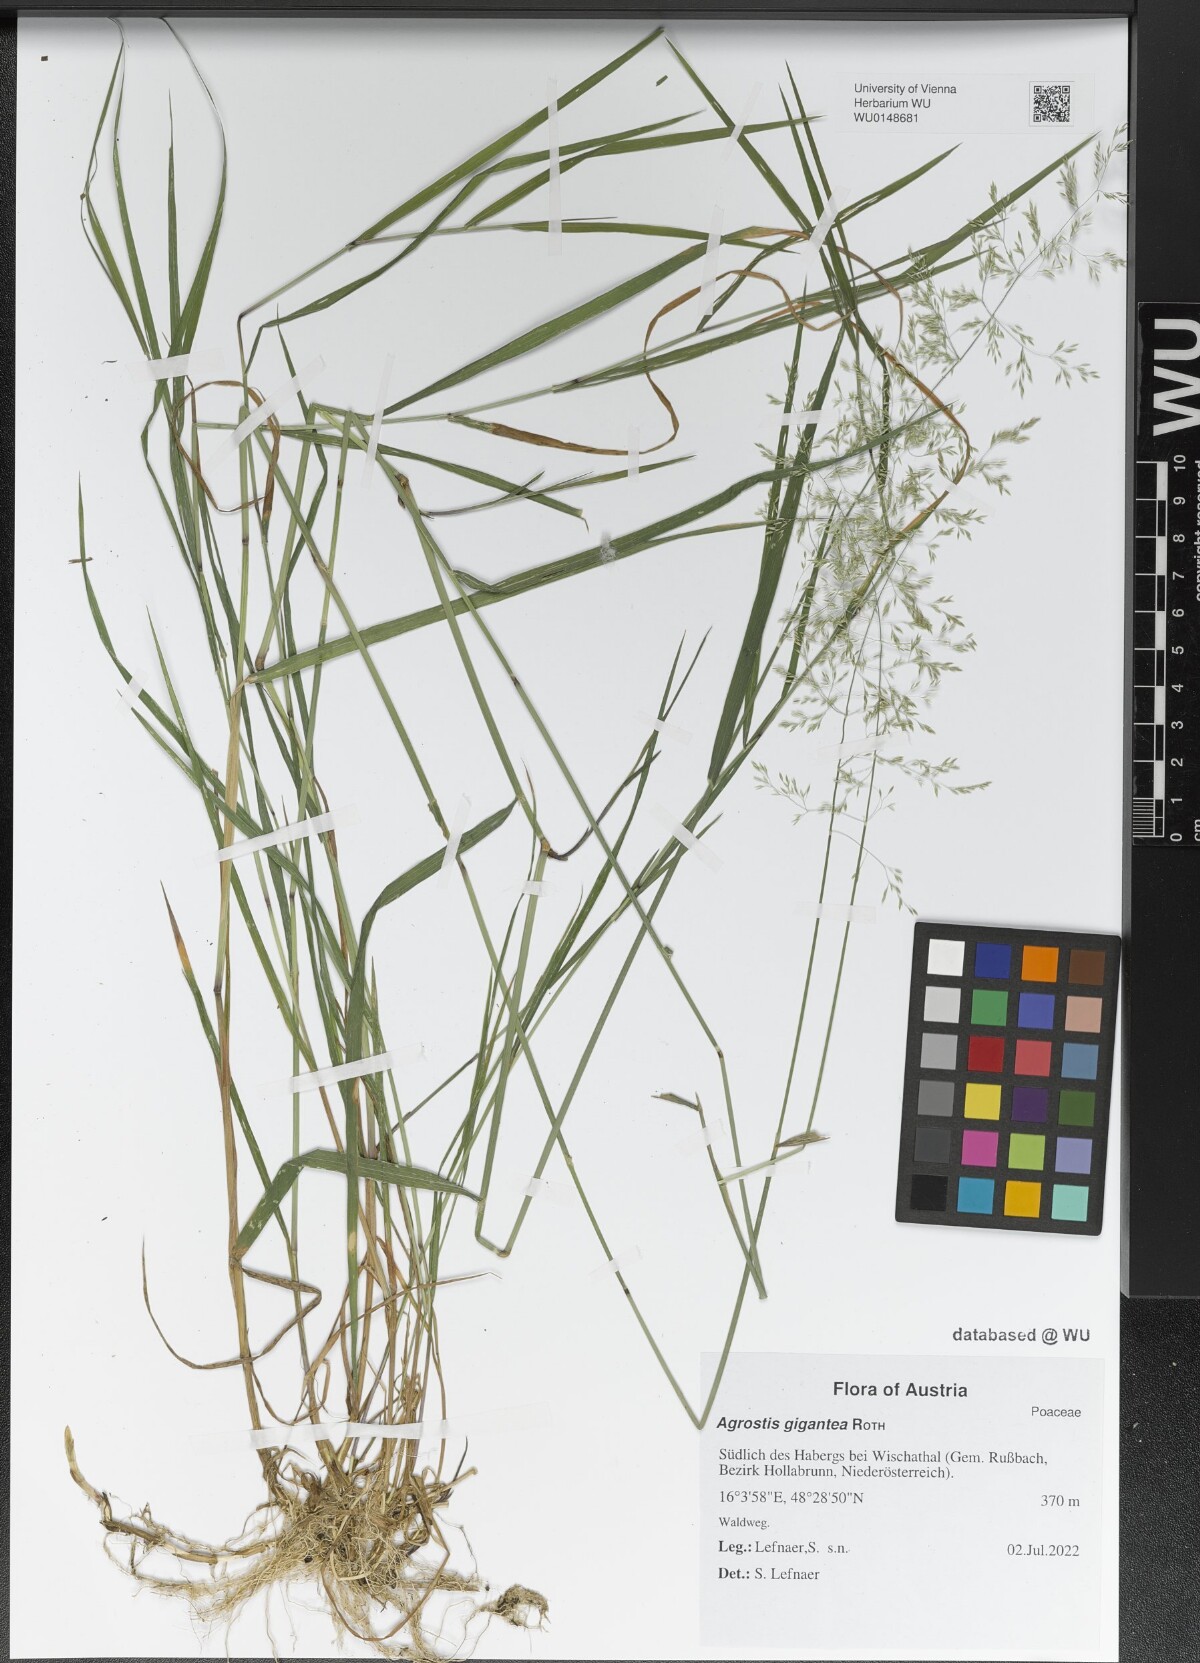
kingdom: Plantae
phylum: Tracheophyta
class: Liliopsida
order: Poales
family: Poaceae
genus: Agrostis
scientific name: Agrostis gigantea
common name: Black bent
